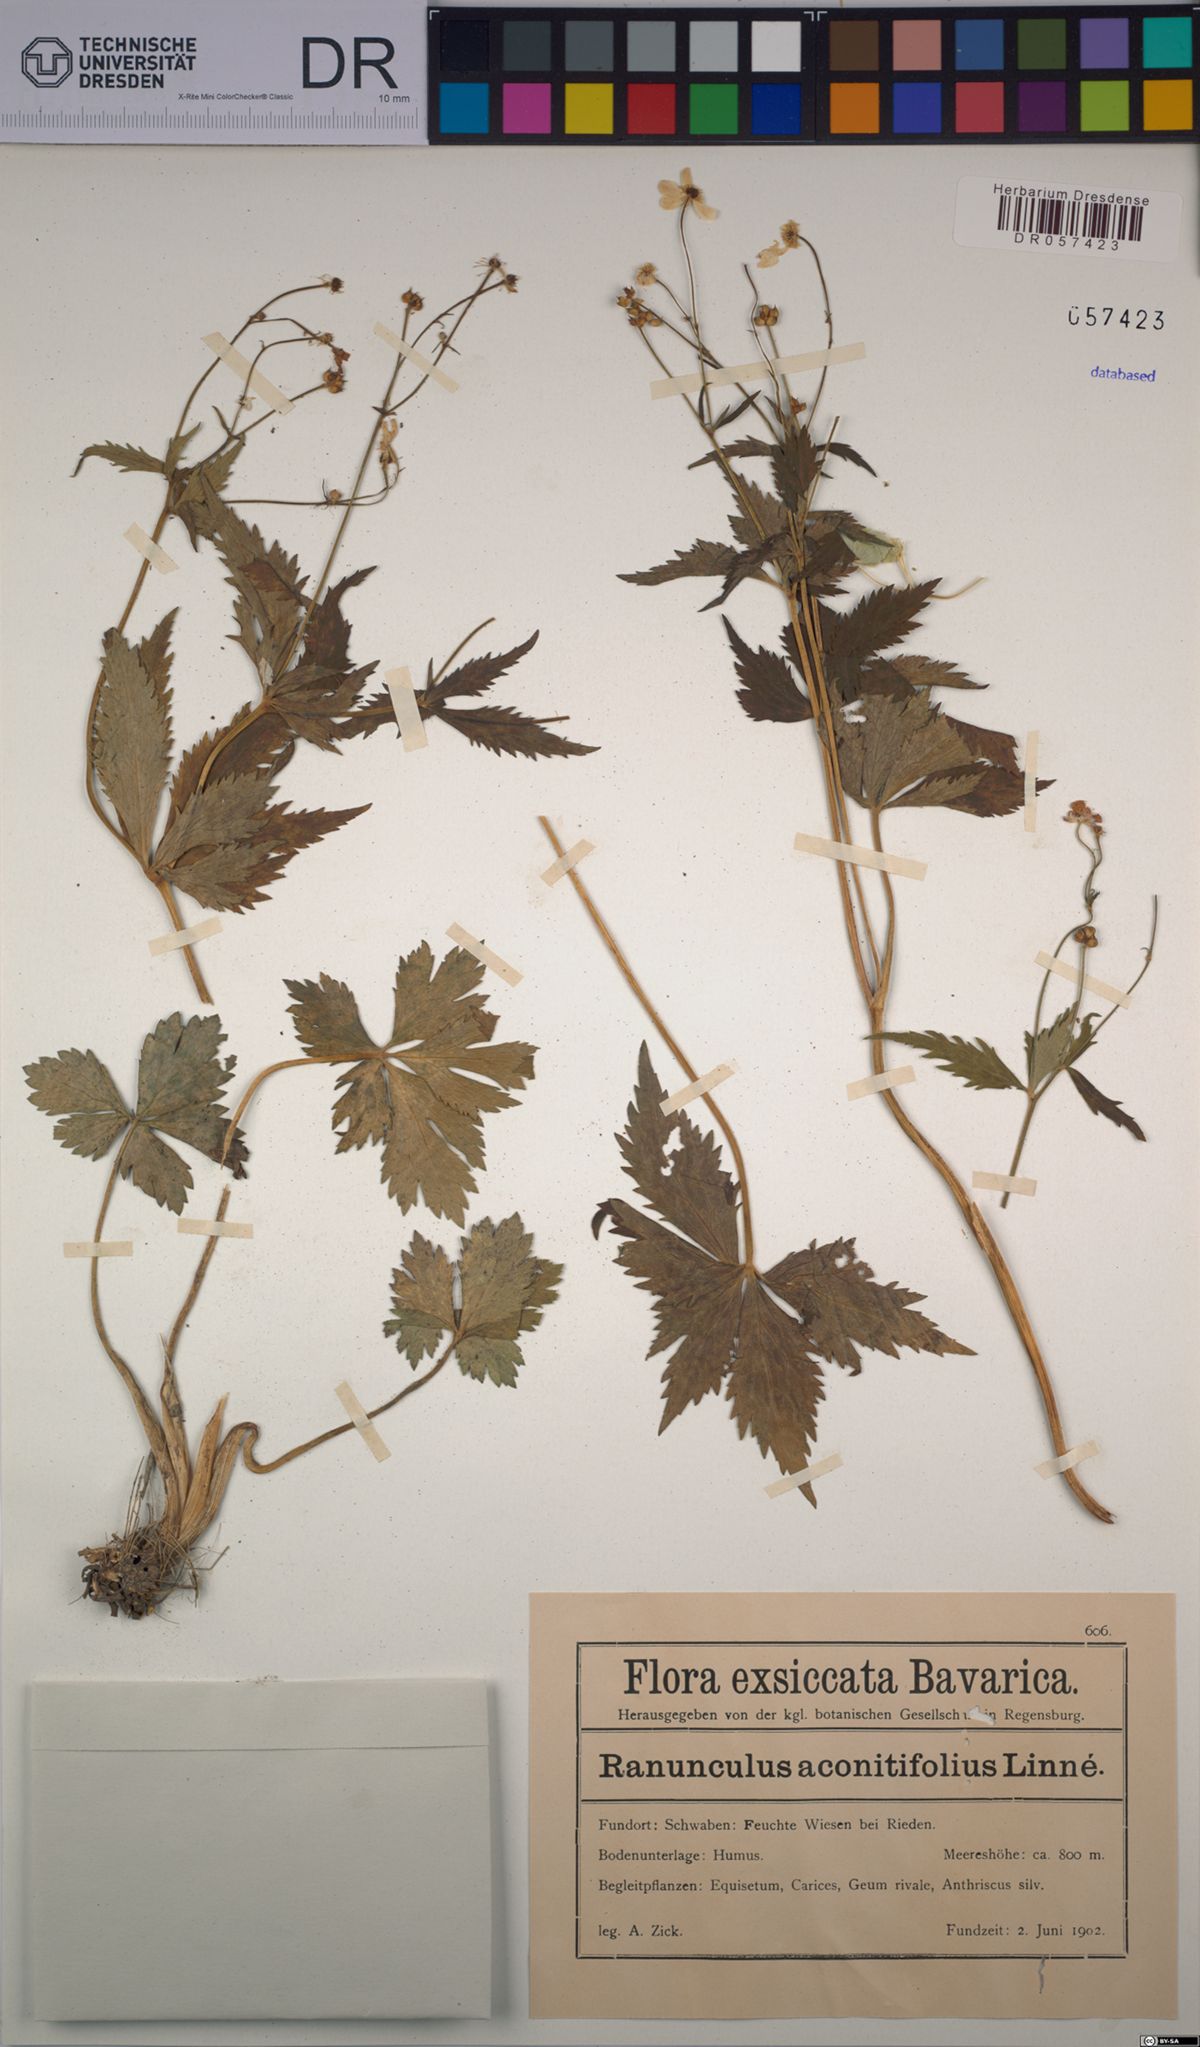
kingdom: Plantae
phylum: Tracheophyta
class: Magnoliopsida
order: Ranunculales
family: Ranunculaceae
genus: Ranunculus
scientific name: Ranunculus aconitifolius
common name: Aconite-leaved buttercup
